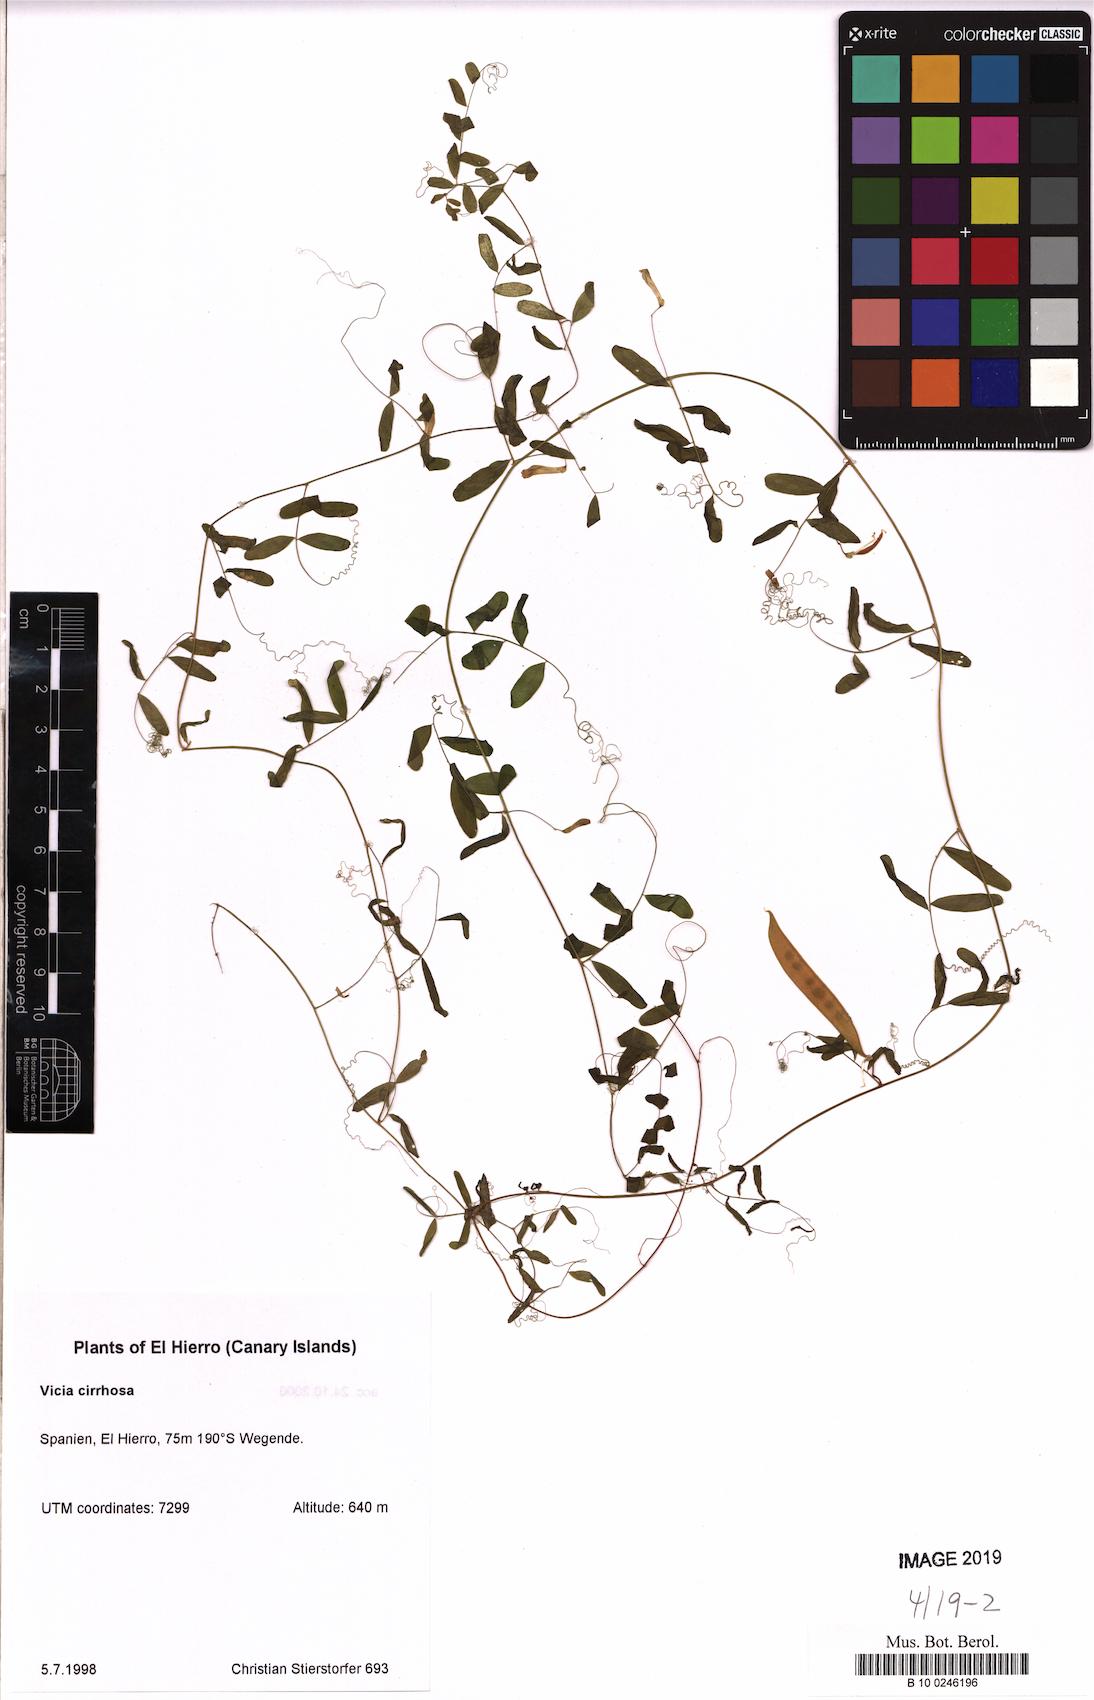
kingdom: Plantae
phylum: Tracheophyta
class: Magnoliopsida
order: Fabales
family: Fabaceae
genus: Vicia
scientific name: Vicia aphylla
